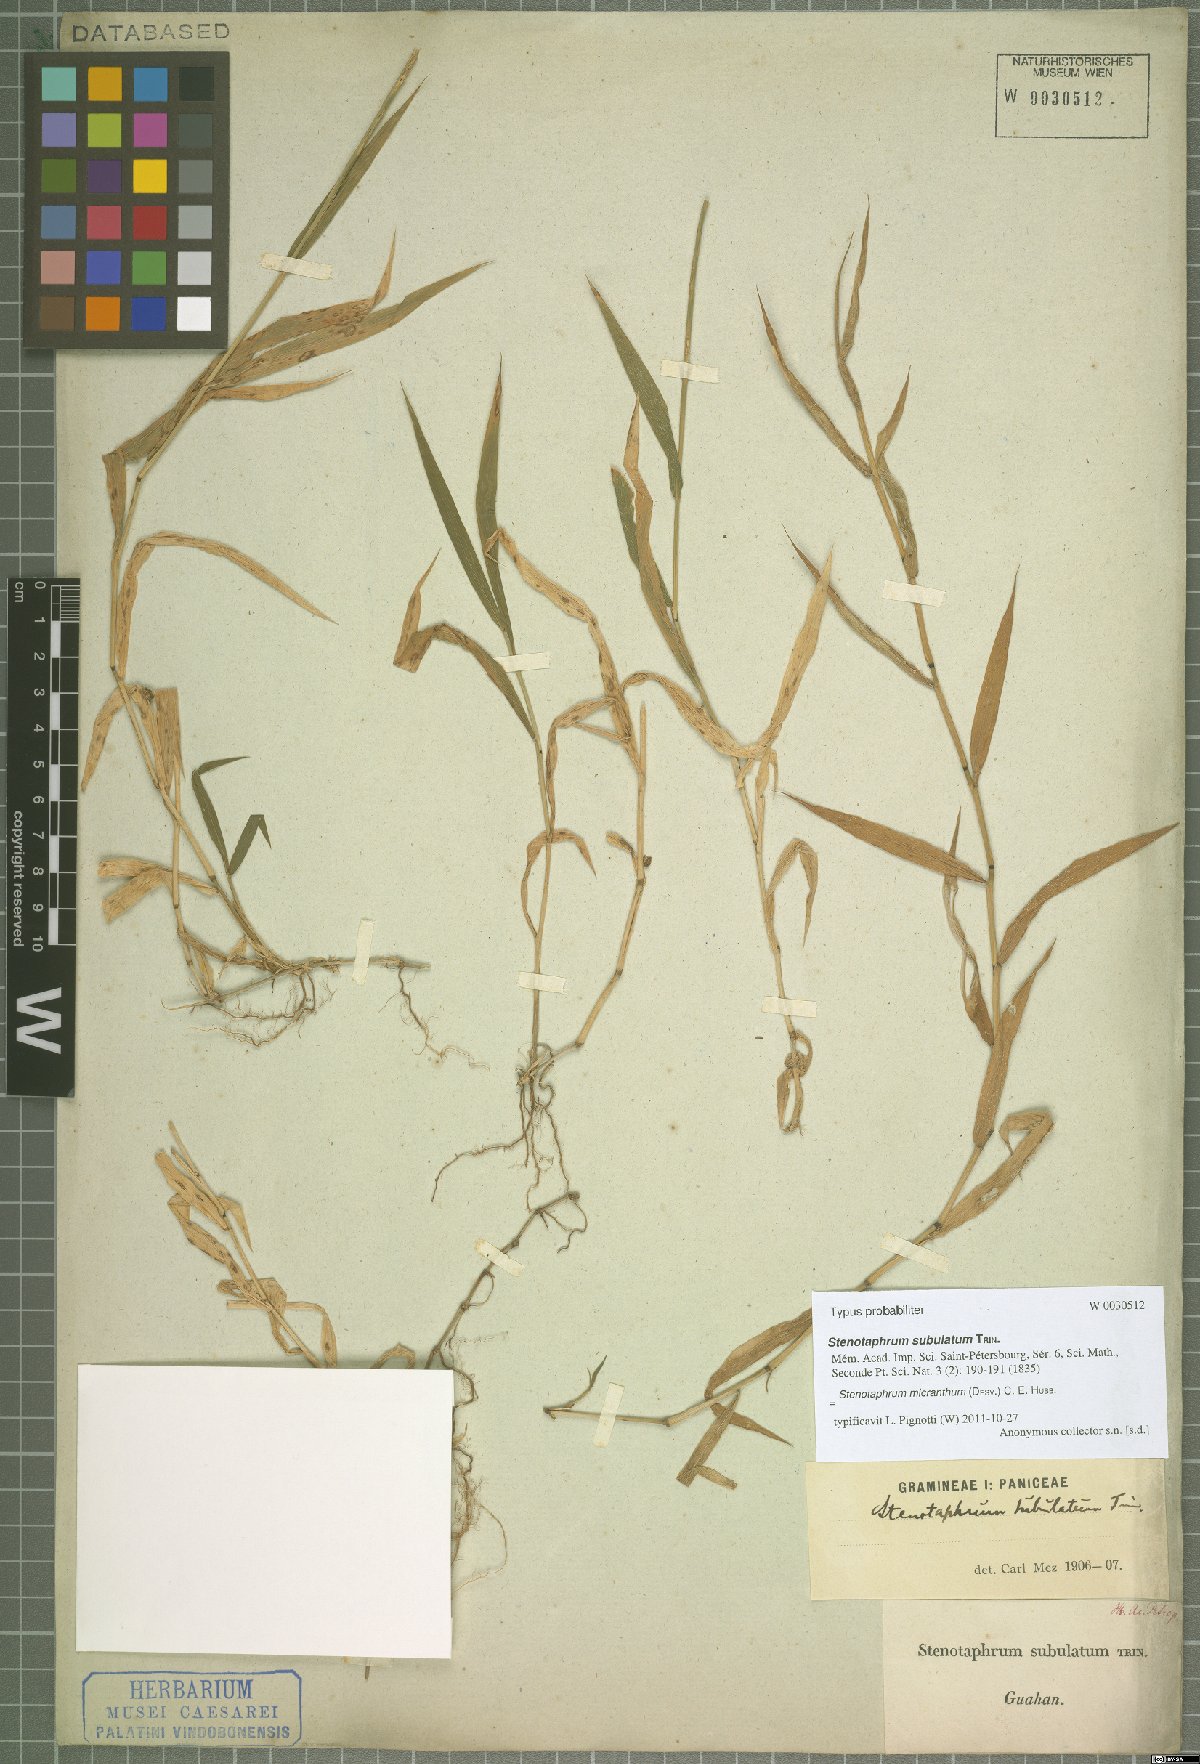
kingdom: Plantae
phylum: Tracheophyta
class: Liliopsida
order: Poales
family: Poaceae
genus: Stenotaphrum
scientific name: Stenotaphrum micranthum
